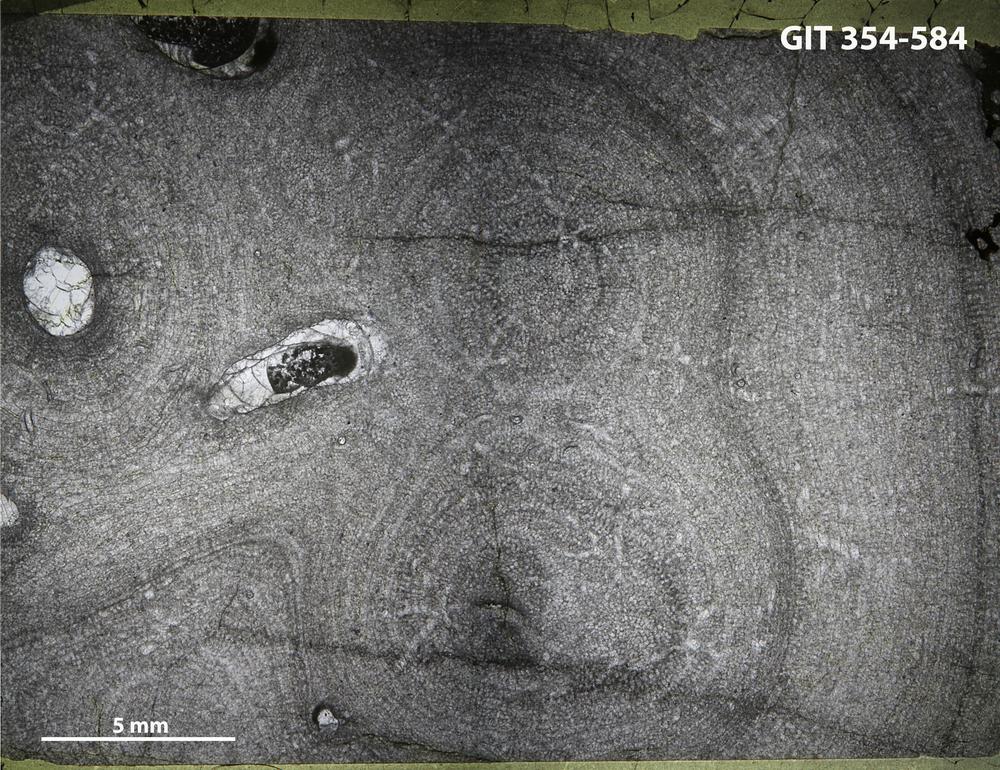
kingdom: Animalia
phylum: Porifera
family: Pseudolabechiidae
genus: Vikingia
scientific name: Vikingia
